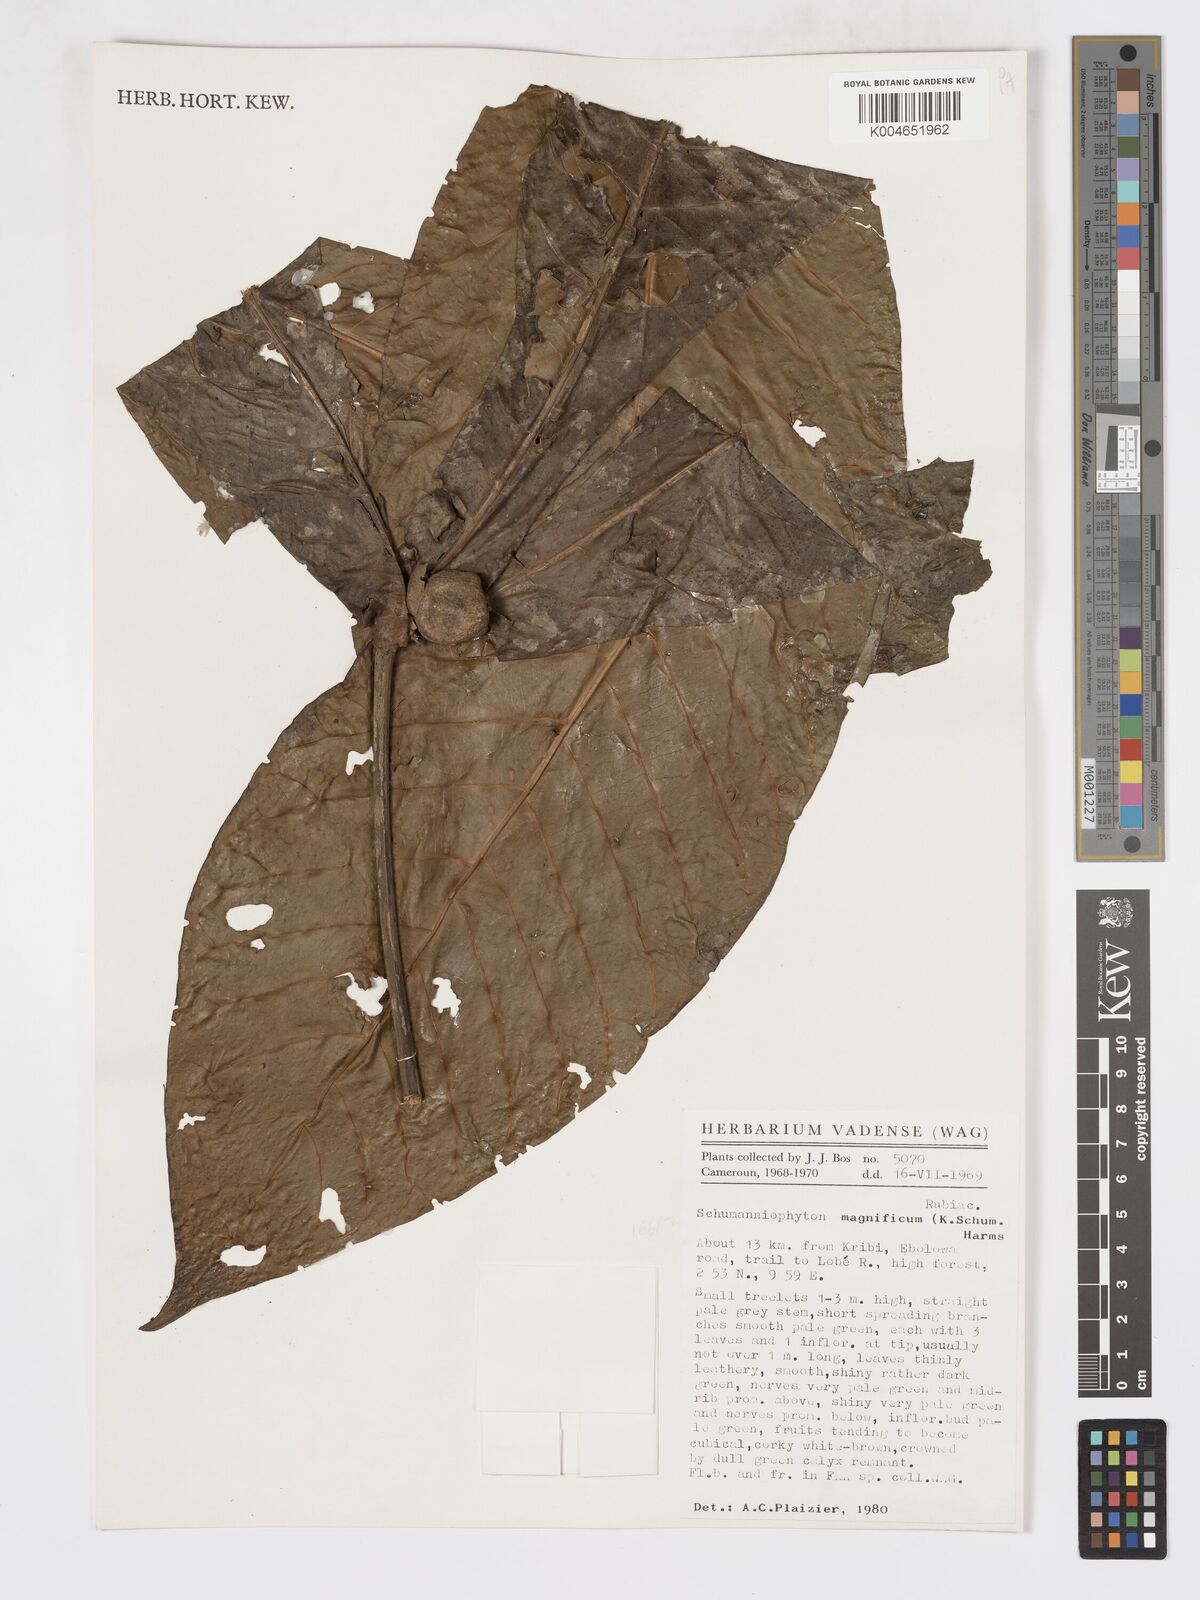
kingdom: Plantae
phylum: Tracheophyta
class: Magnoliopsida
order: Gentianales
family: Rubiaceae
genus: Schumanniophyton
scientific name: Schumanniophyton magnificum
